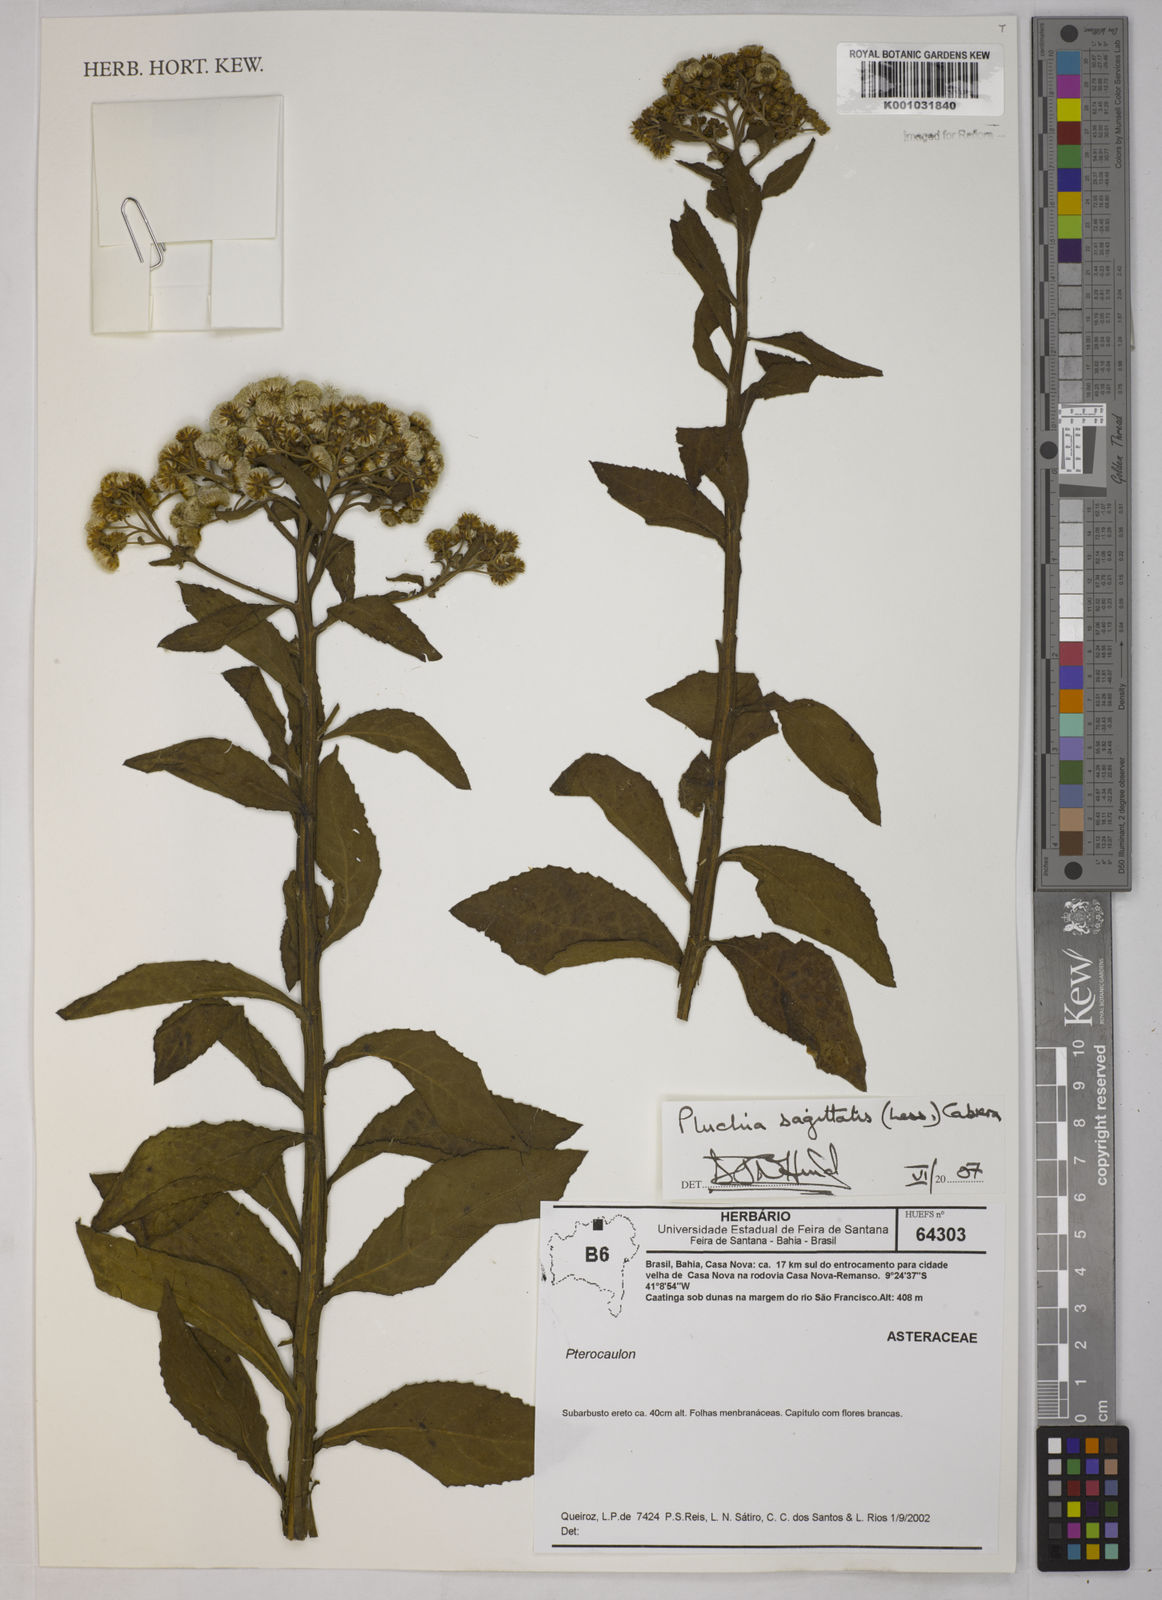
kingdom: Plantae
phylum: Tracheophyta
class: Magnoliopsida
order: Asterales
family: Asteraceae
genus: Pluchea
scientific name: Pluchea sagittalis
